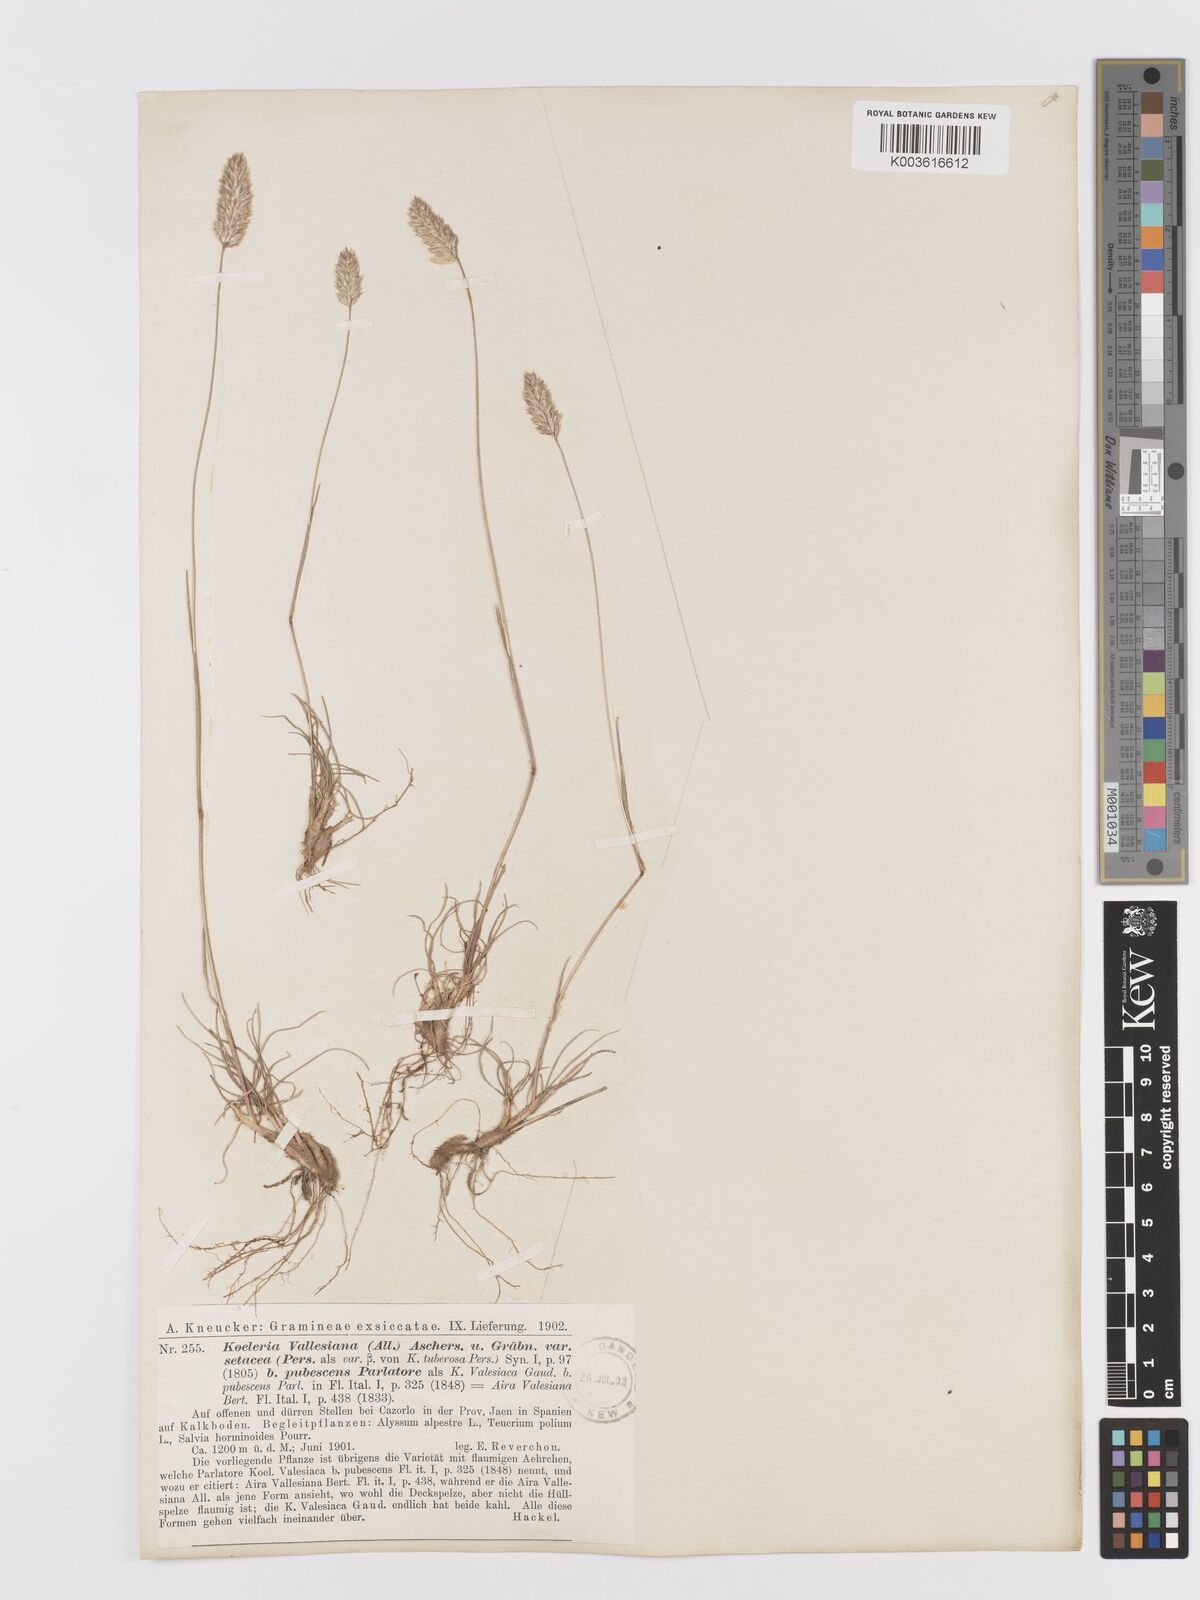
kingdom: Plantae
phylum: Tracheophyta
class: Liliopsida
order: Poales
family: Poaceae
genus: Koeleria
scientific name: Koeleria vallesiana
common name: Somerset hair-grass
